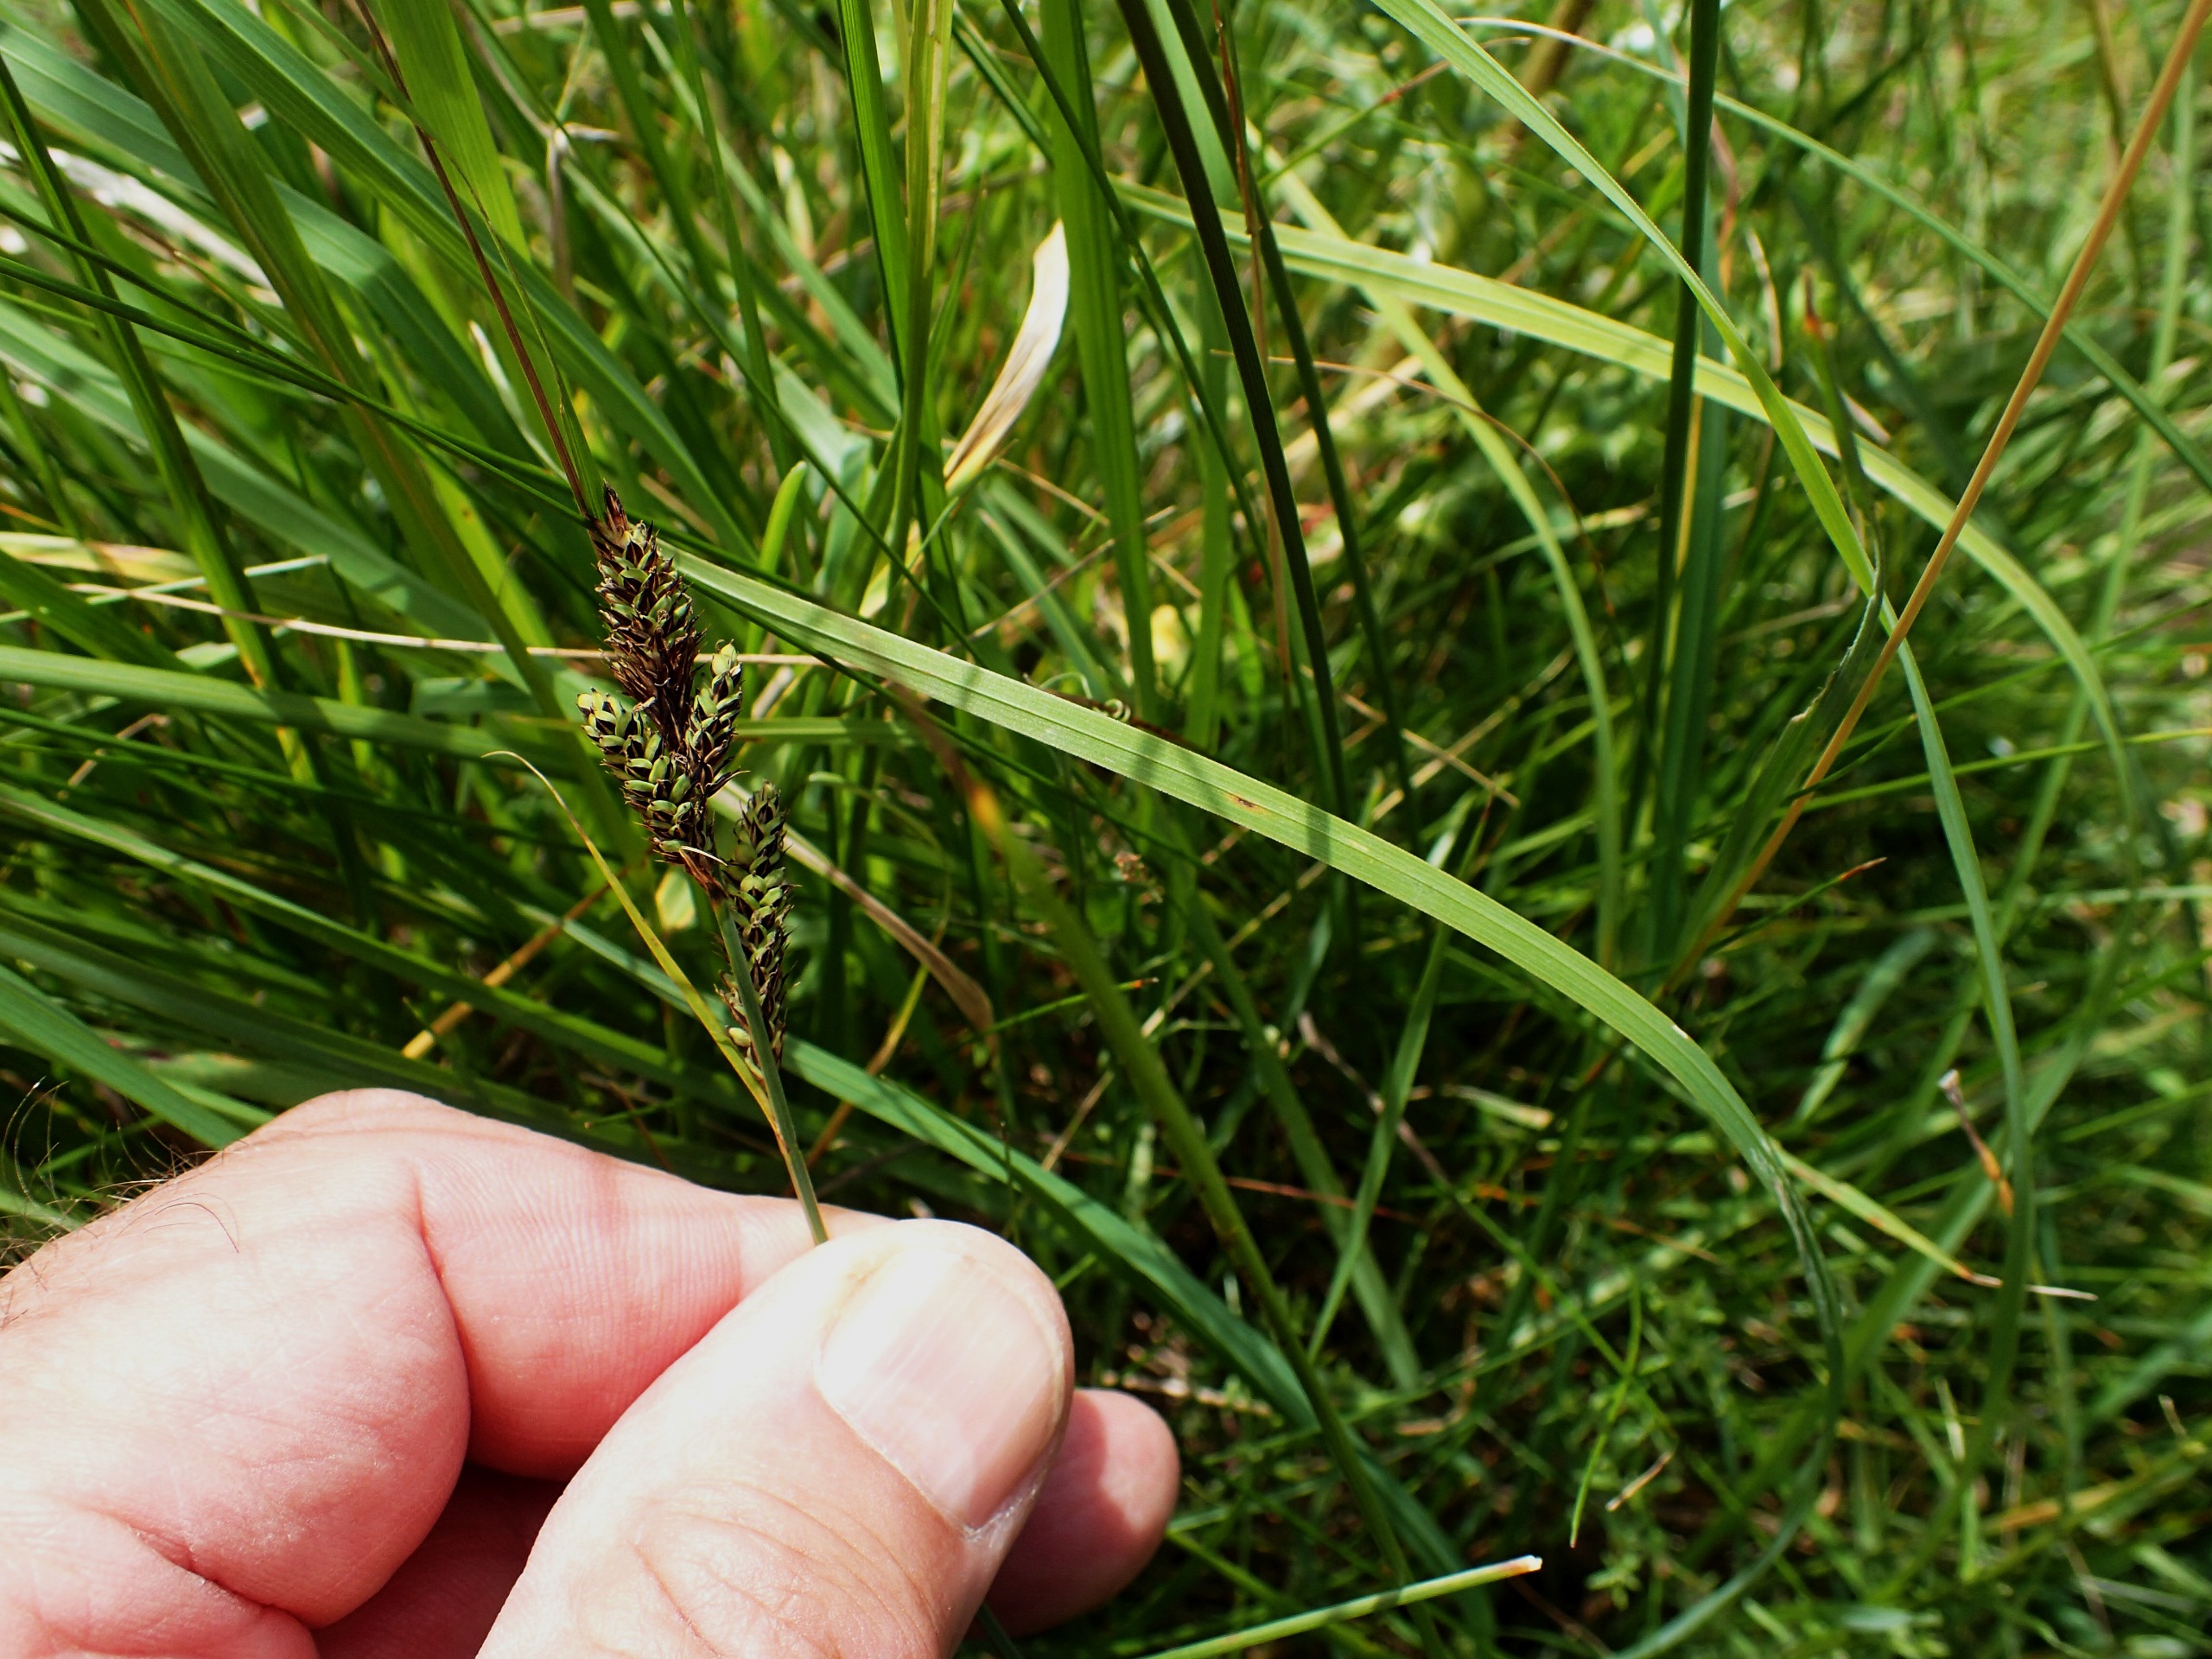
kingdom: Plantae
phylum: Tracheophyta
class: Liliopsida
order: Poales
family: Cyperaceae
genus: Carex
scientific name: Carex hartmaniorum
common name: Hartmans star
